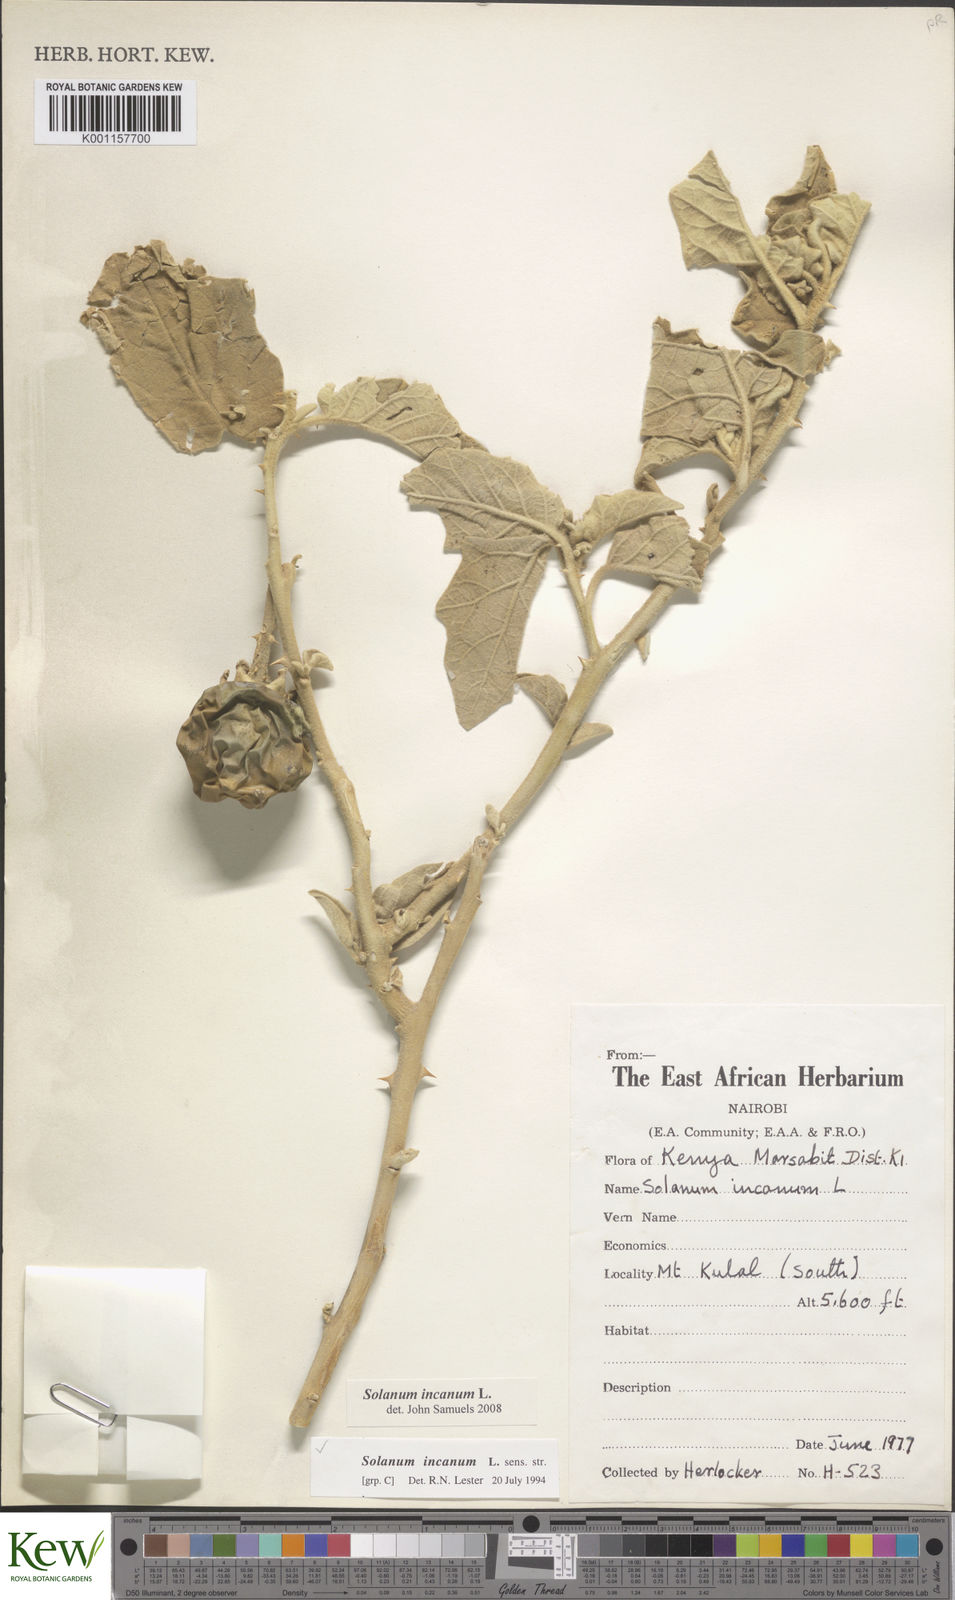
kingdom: Plantae
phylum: Tracheophyta
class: Magnoliopsida
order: Solanales
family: Solanaceae
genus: Solanum
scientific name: Solanum incanum
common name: Bitter apple
